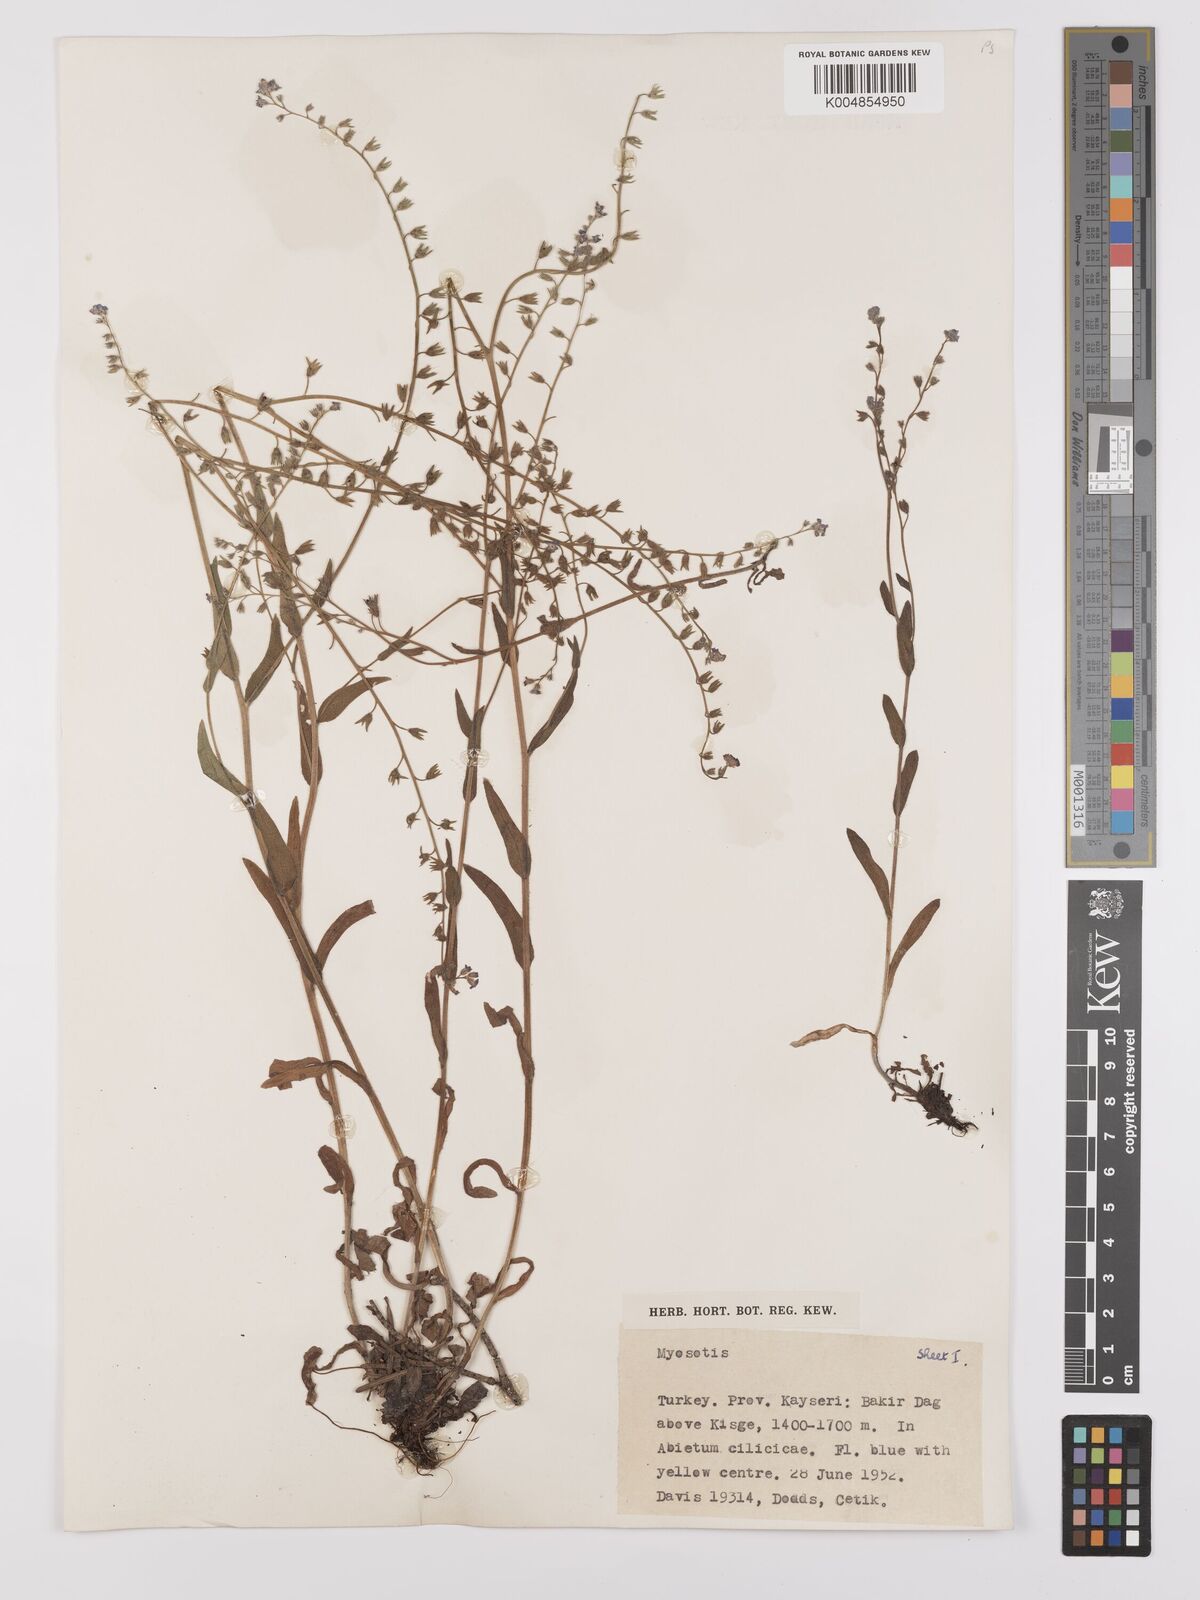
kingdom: Plantae
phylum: Tracheophyta
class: Magnoliopsida
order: Boraginales
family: Boraginaceae
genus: Myosotis
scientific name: Myosotis
